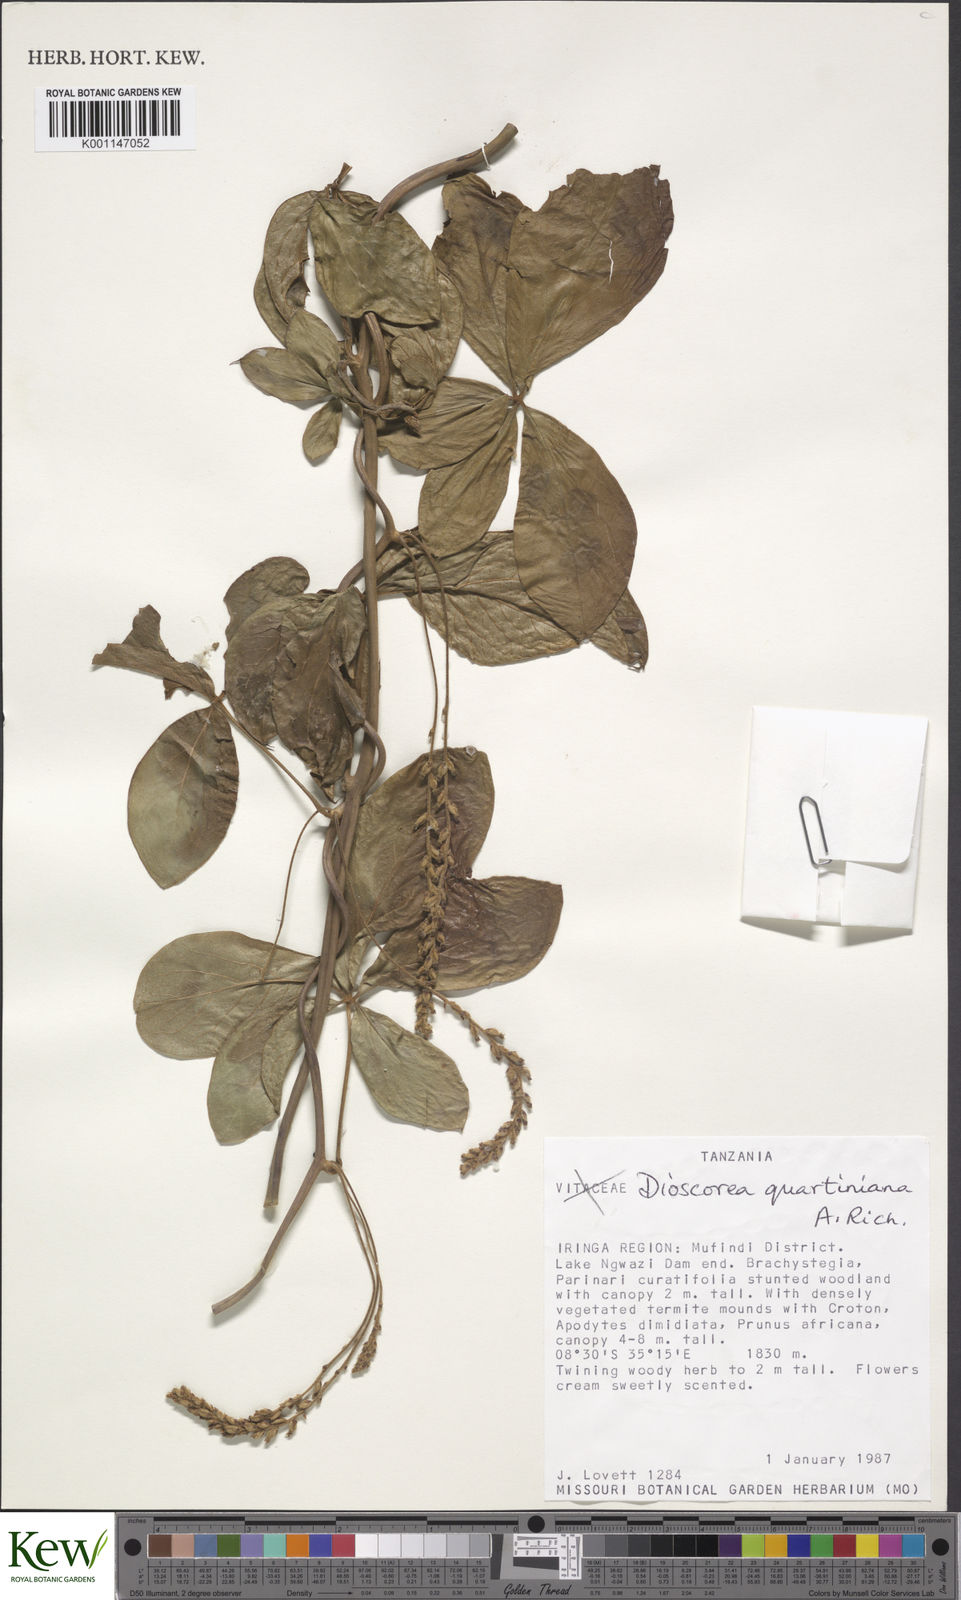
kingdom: Plantae
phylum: Tracheophyta
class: Liliopsida
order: Dioscoreales
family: Dioscoreaceae
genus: Dioscorea
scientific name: Dioscorea quartiniana
